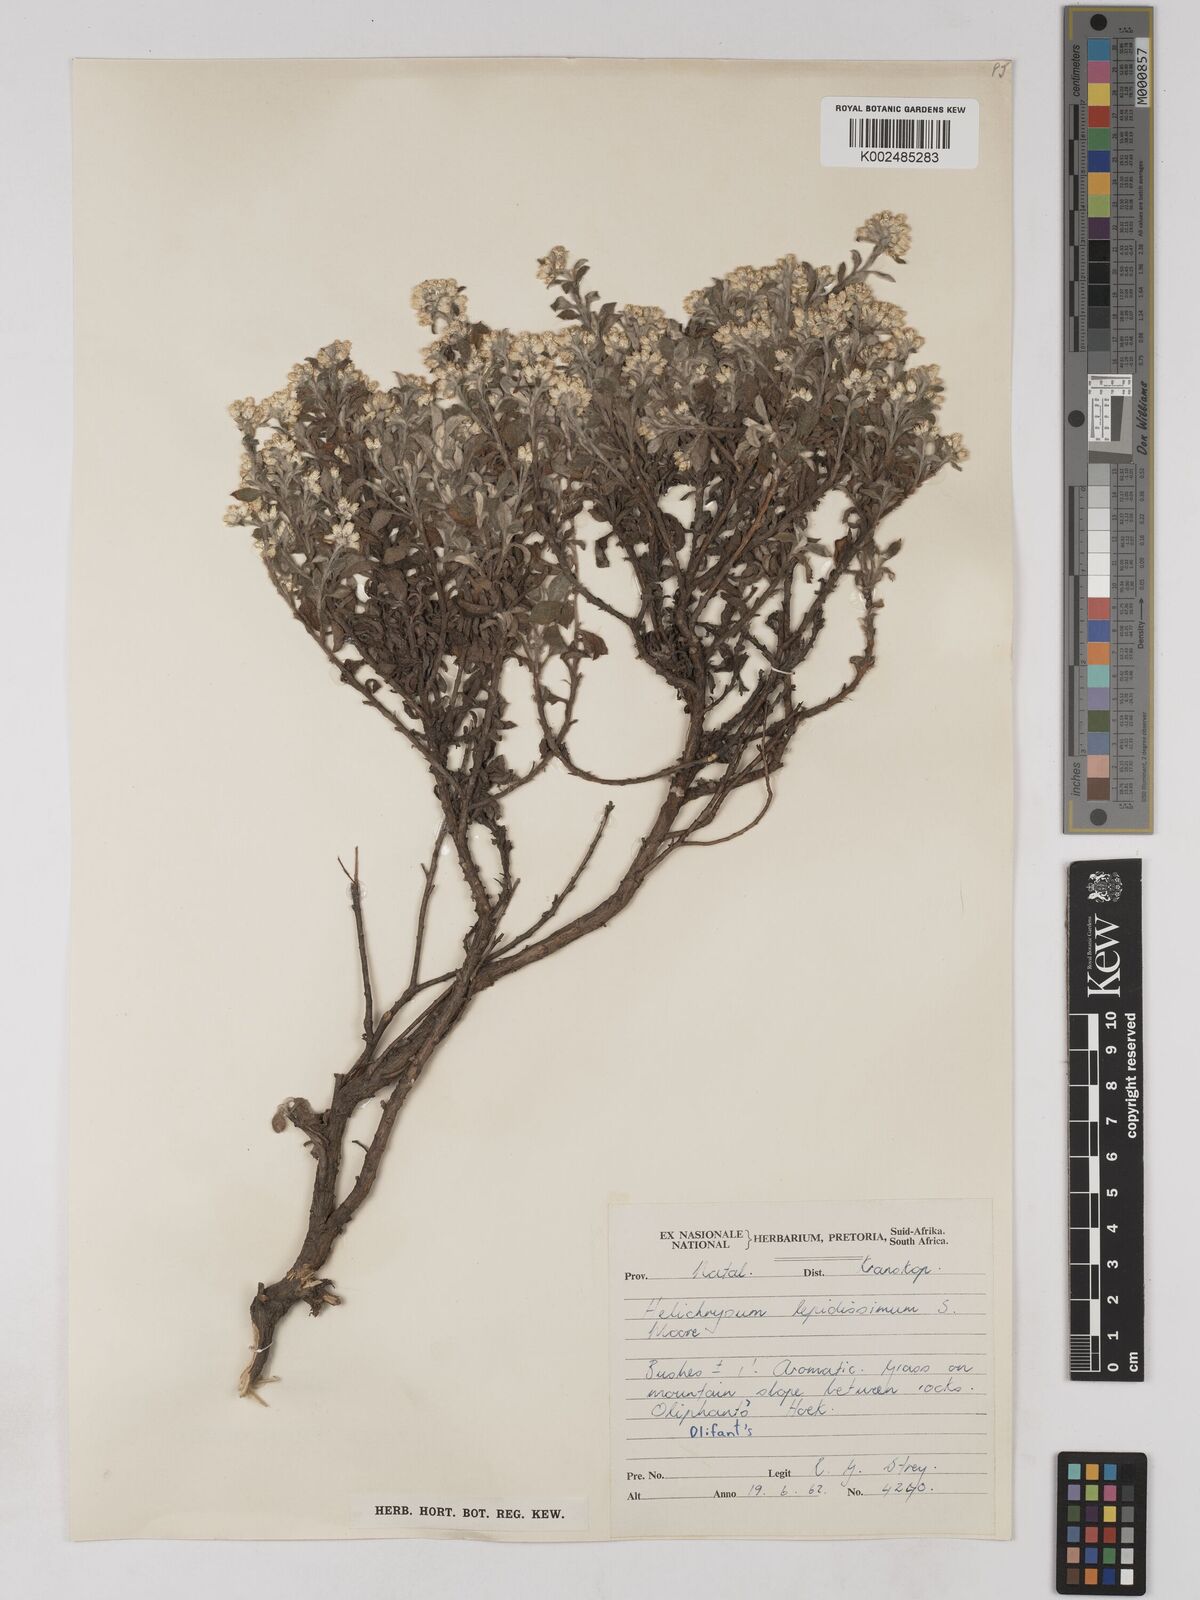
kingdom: Plantae
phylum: Tracheophyta
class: Magnoliopsida
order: Asterales
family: Asteraceae
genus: Helichrysum
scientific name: Helichrysum lepidissimum
